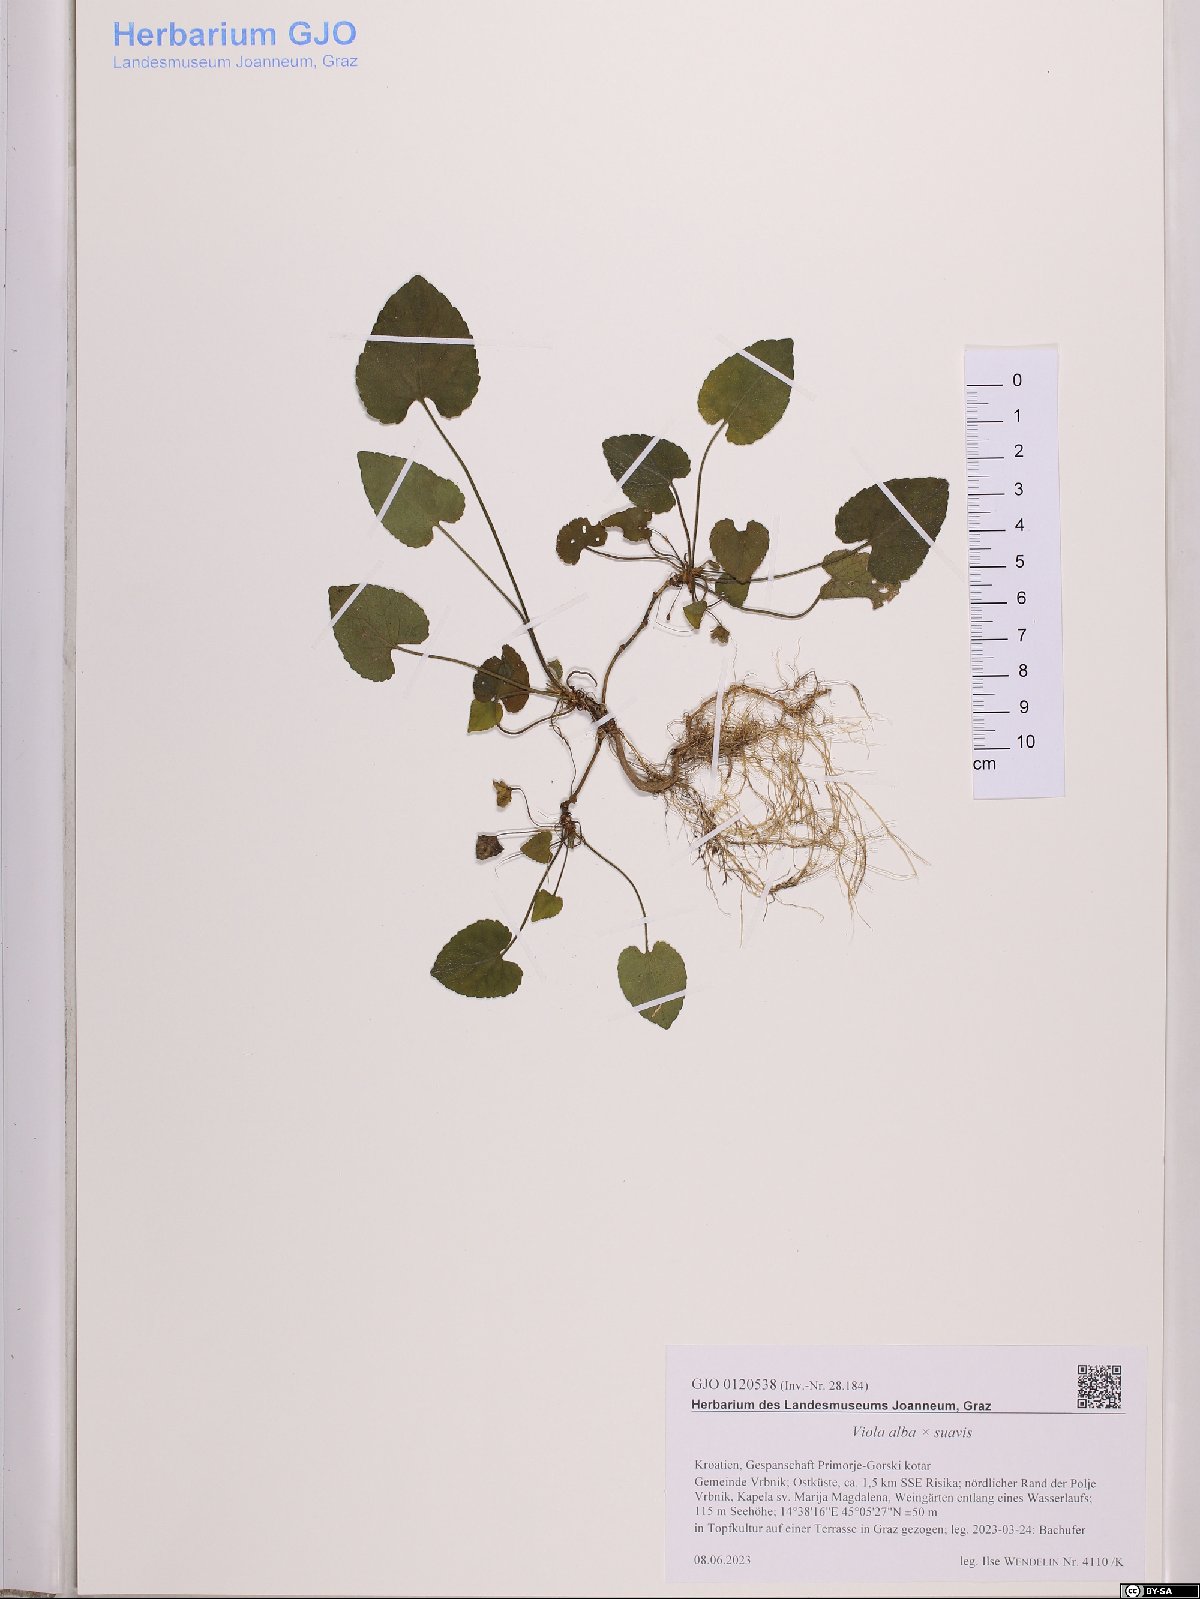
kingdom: Plantae
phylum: Tracheophyta
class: Magnoliopsida
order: Malpighiales
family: Violaceae
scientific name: Violaceae
